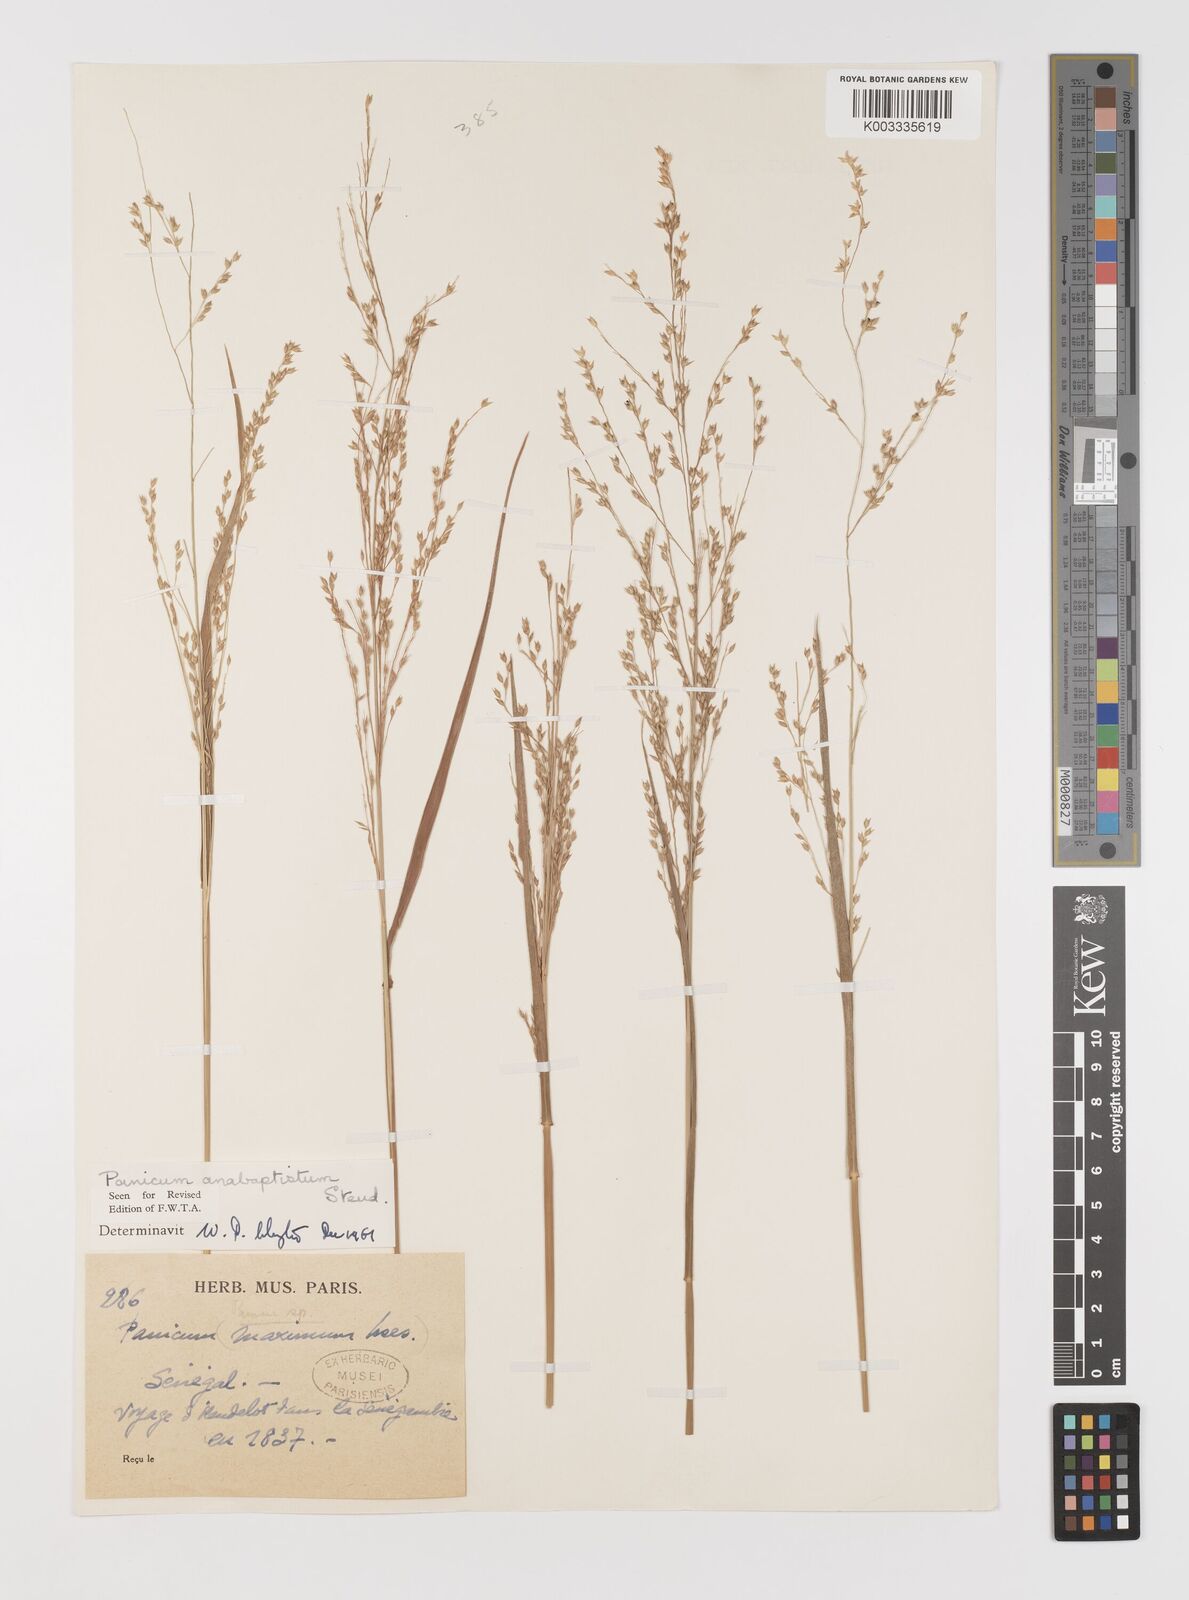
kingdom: Plantae
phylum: Tracheophyta
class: Liliopsida
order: Poales
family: Poaceae
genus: Panicum
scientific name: Panicum anabaptistum
